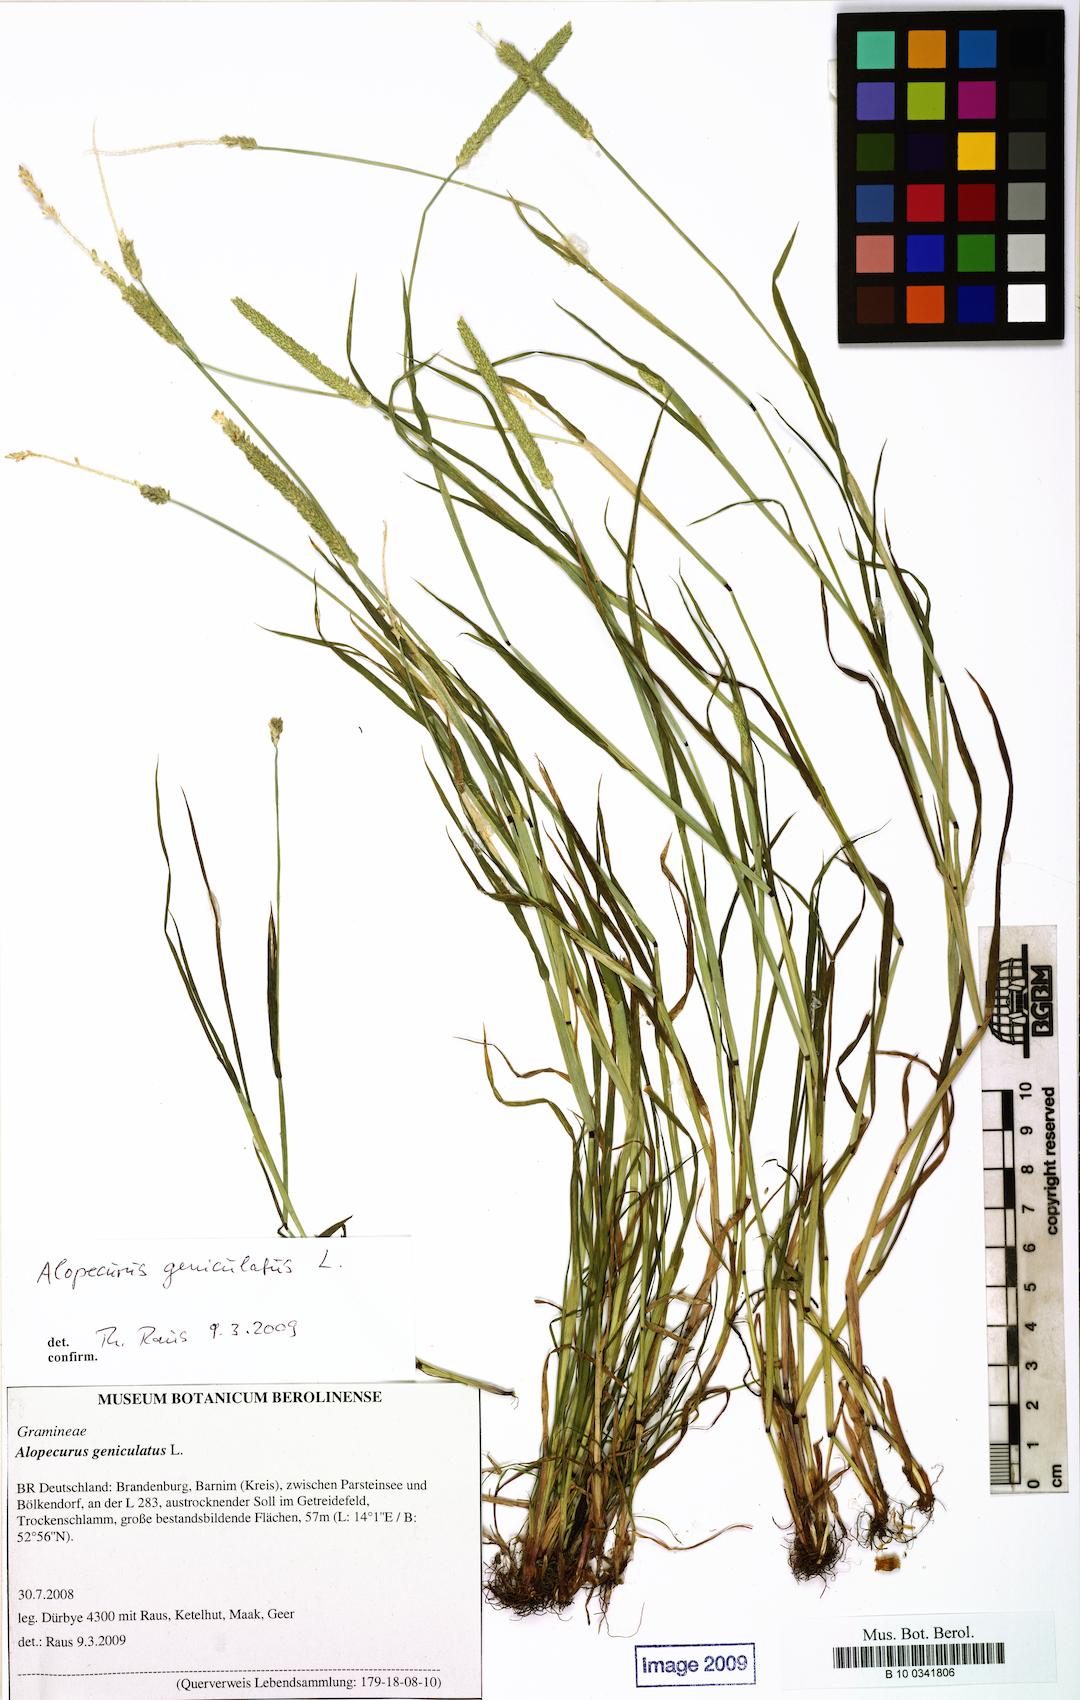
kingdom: Plantae
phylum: Tracheophyta
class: Liliopsida
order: Poales
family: Poaceae
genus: Alopecurus
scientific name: Alopecurus geniculatus
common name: Water foxtail
